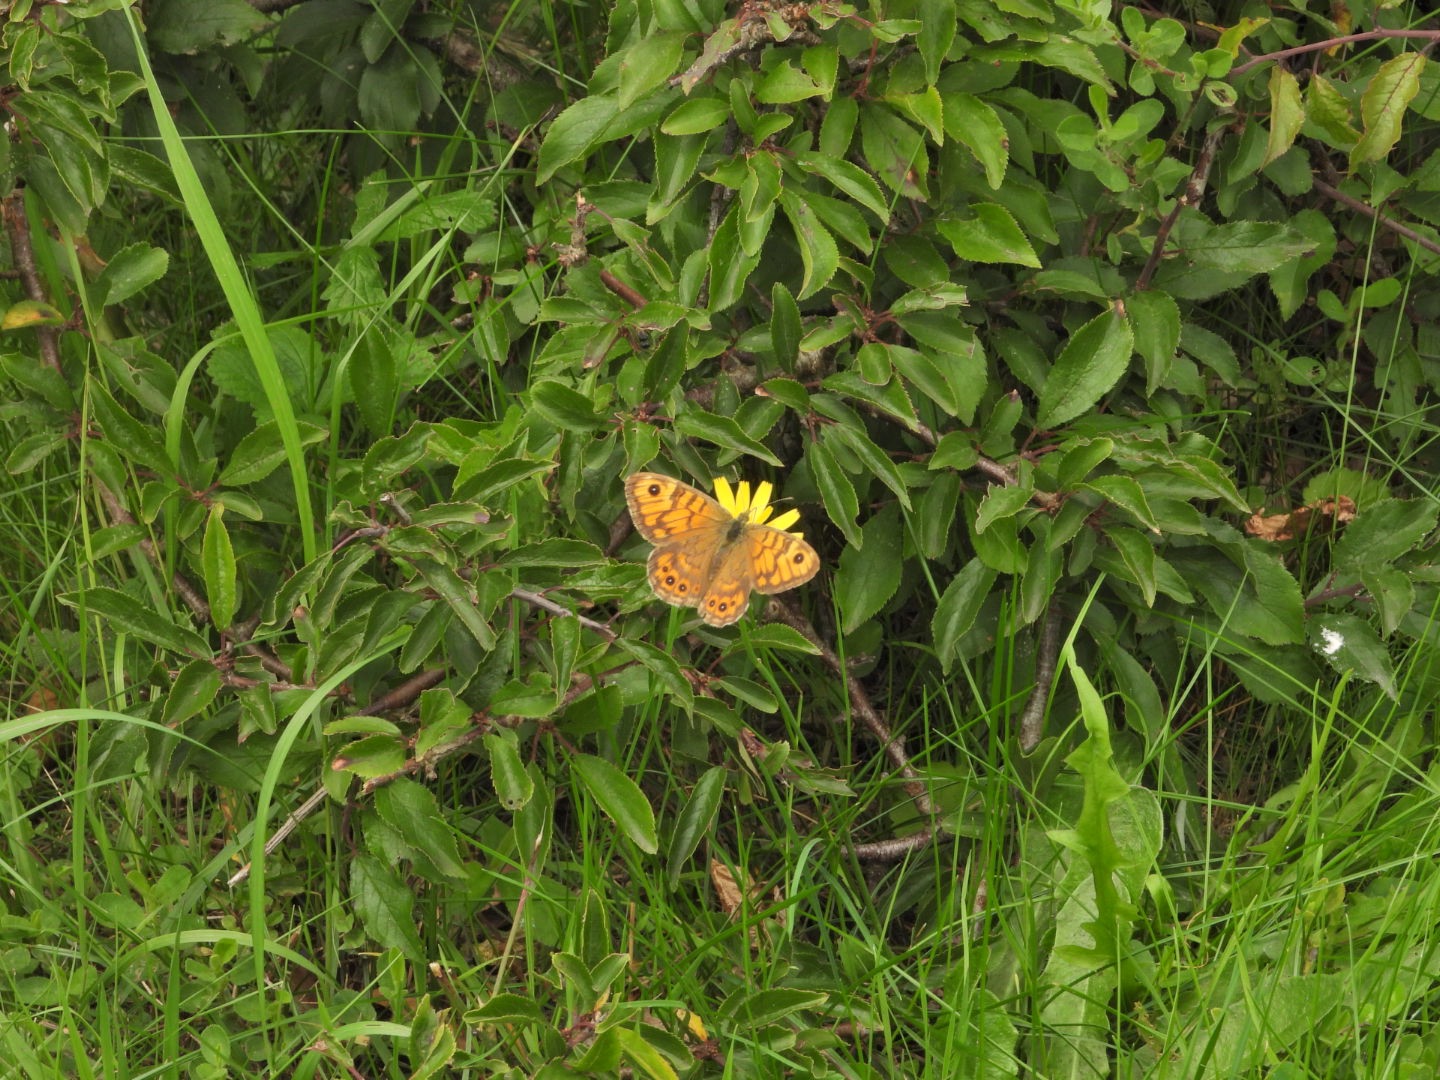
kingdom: Animalia
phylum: Arthropoda
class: Insecta
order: Lepidoptera
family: Nymphalidae
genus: Pararge
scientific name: Pararge Lasiommata megera
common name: Vejrandøje
